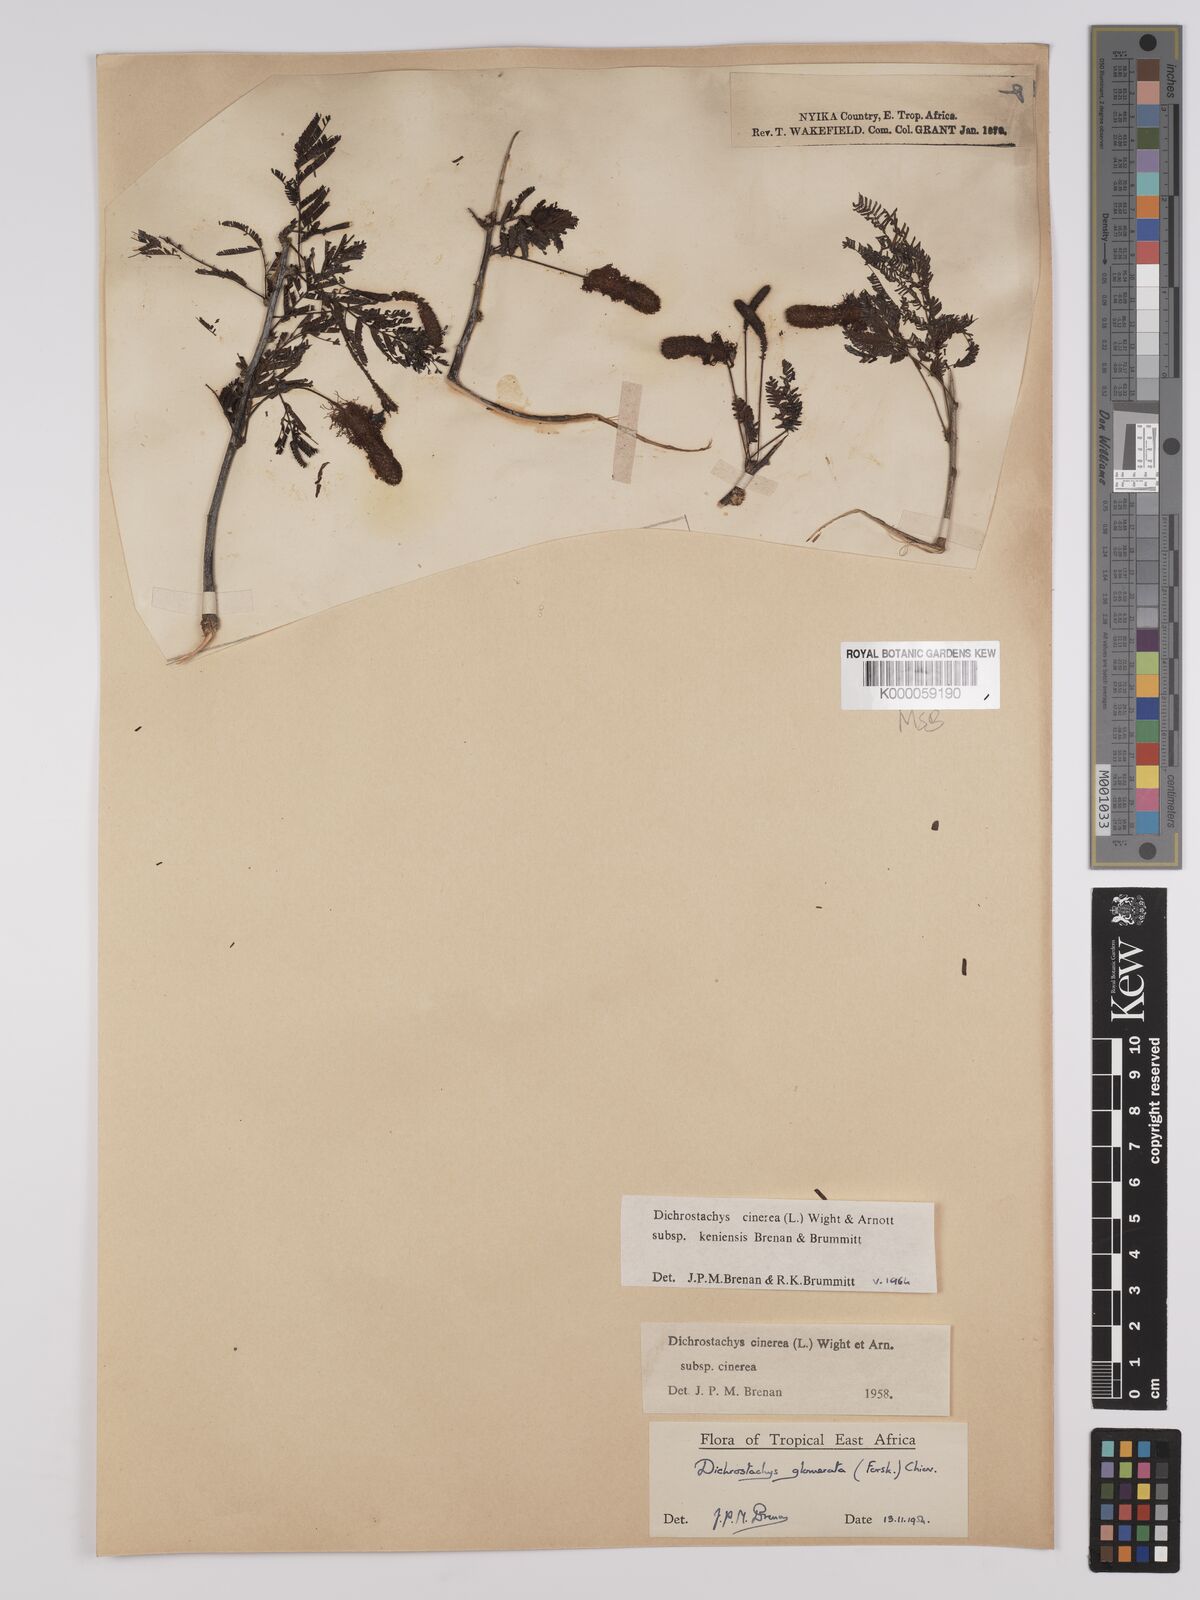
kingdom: Plantae
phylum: Tracheophyta
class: Magnoliopsida
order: Fabales
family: Fabaceae
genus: Dichrostachys
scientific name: Dichrostachys cinerea
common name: Sicklebush
